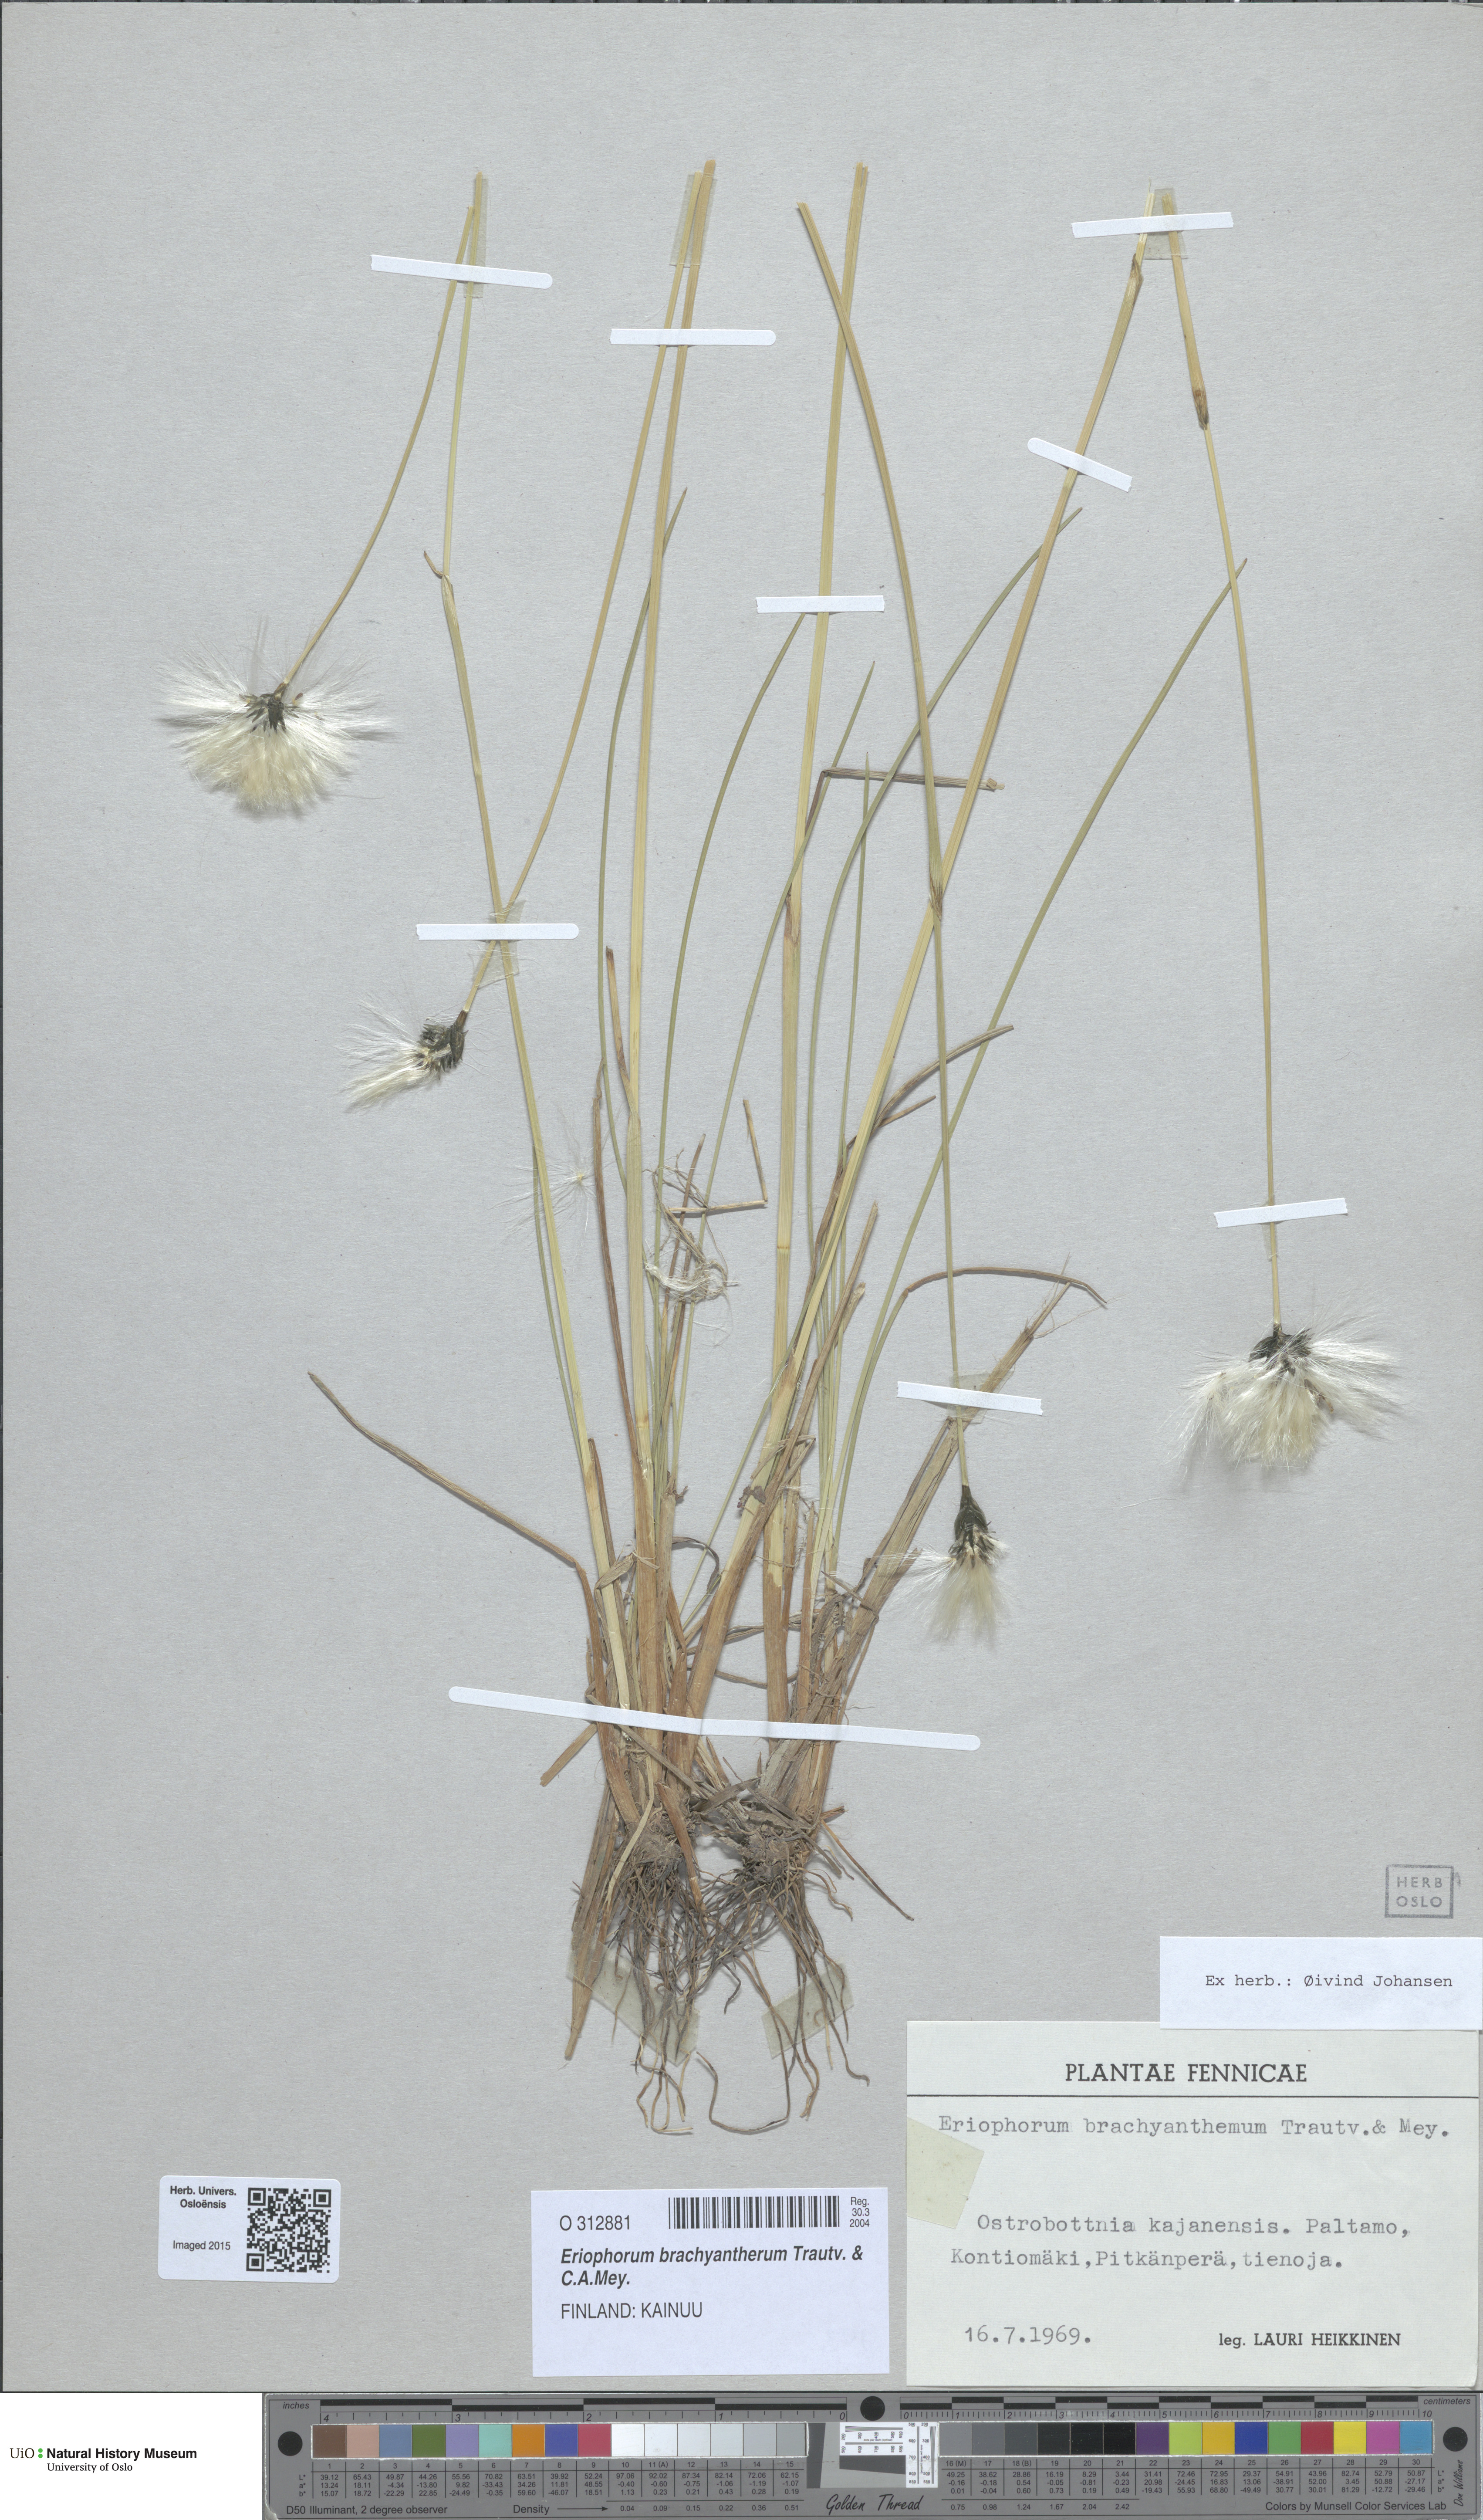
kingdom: Plantae
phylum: Tracheophyta
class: Liliopsida
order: Poales
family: Cyperaceae
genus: Eriophorum
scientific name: Eriophorum brachyantherum
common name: Closed-sheathed cottongrass
